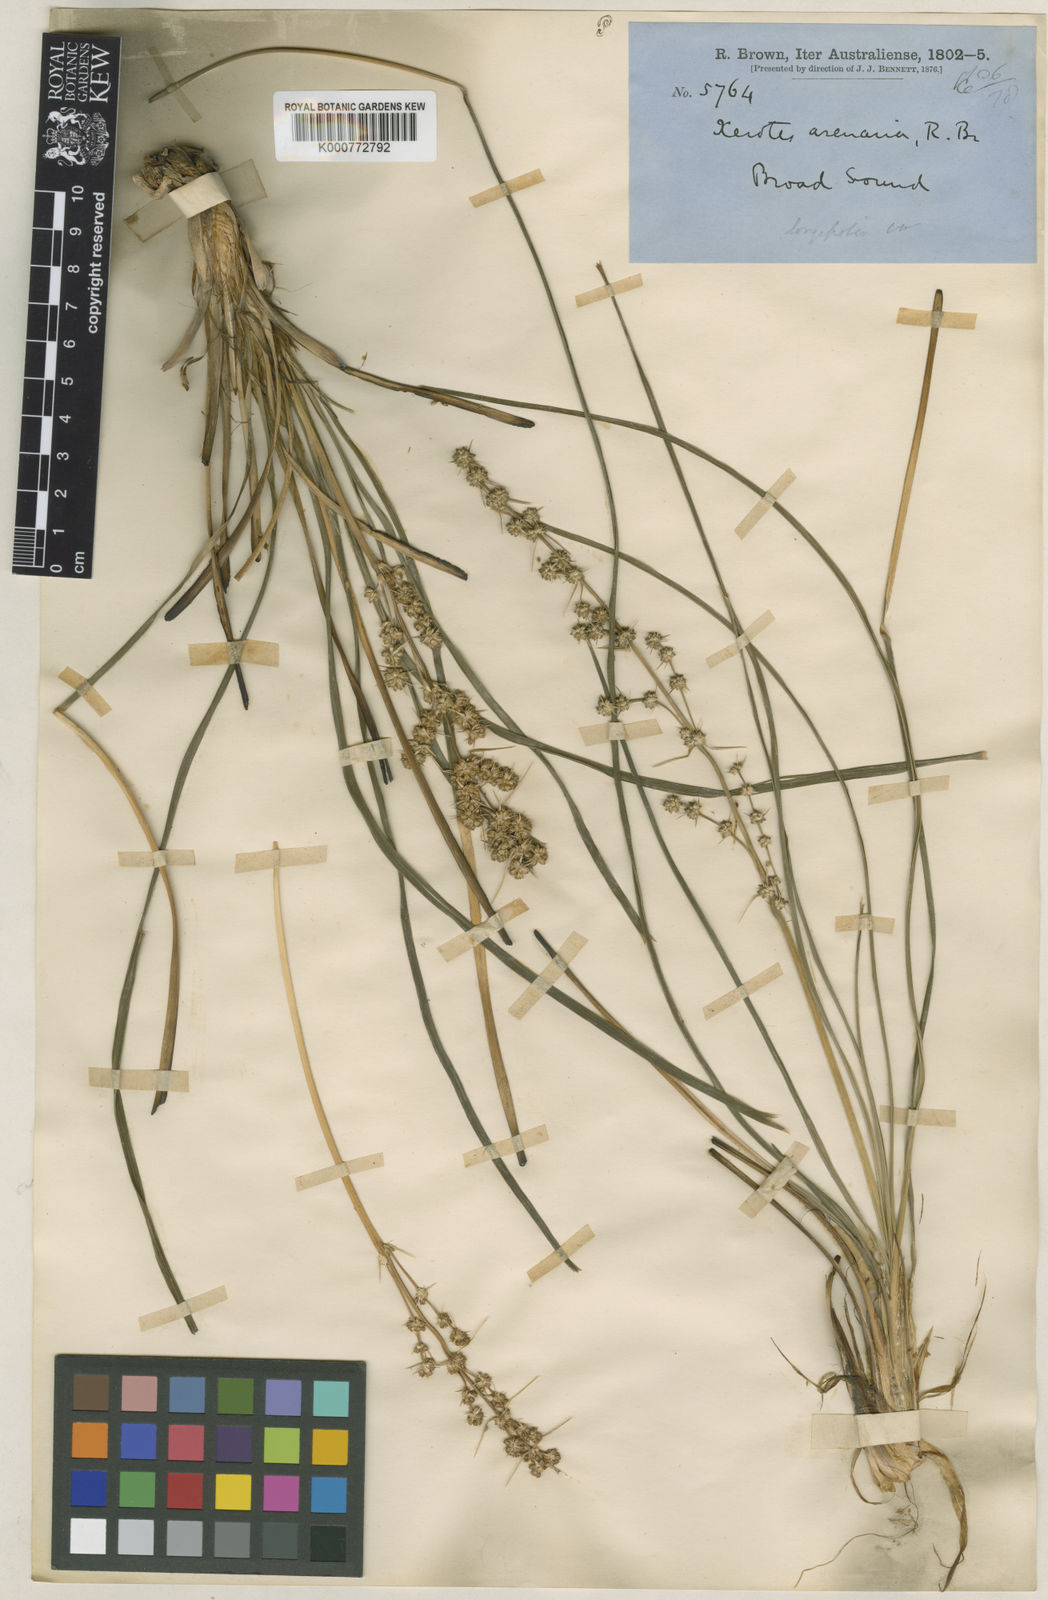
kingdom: Plantae
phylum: Tracheophyta
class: Liliopsida
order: Asparagales
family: Asparagaceae
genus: Lomandra
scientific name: Lomandra longifolia
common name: Longleaf mat-rush
